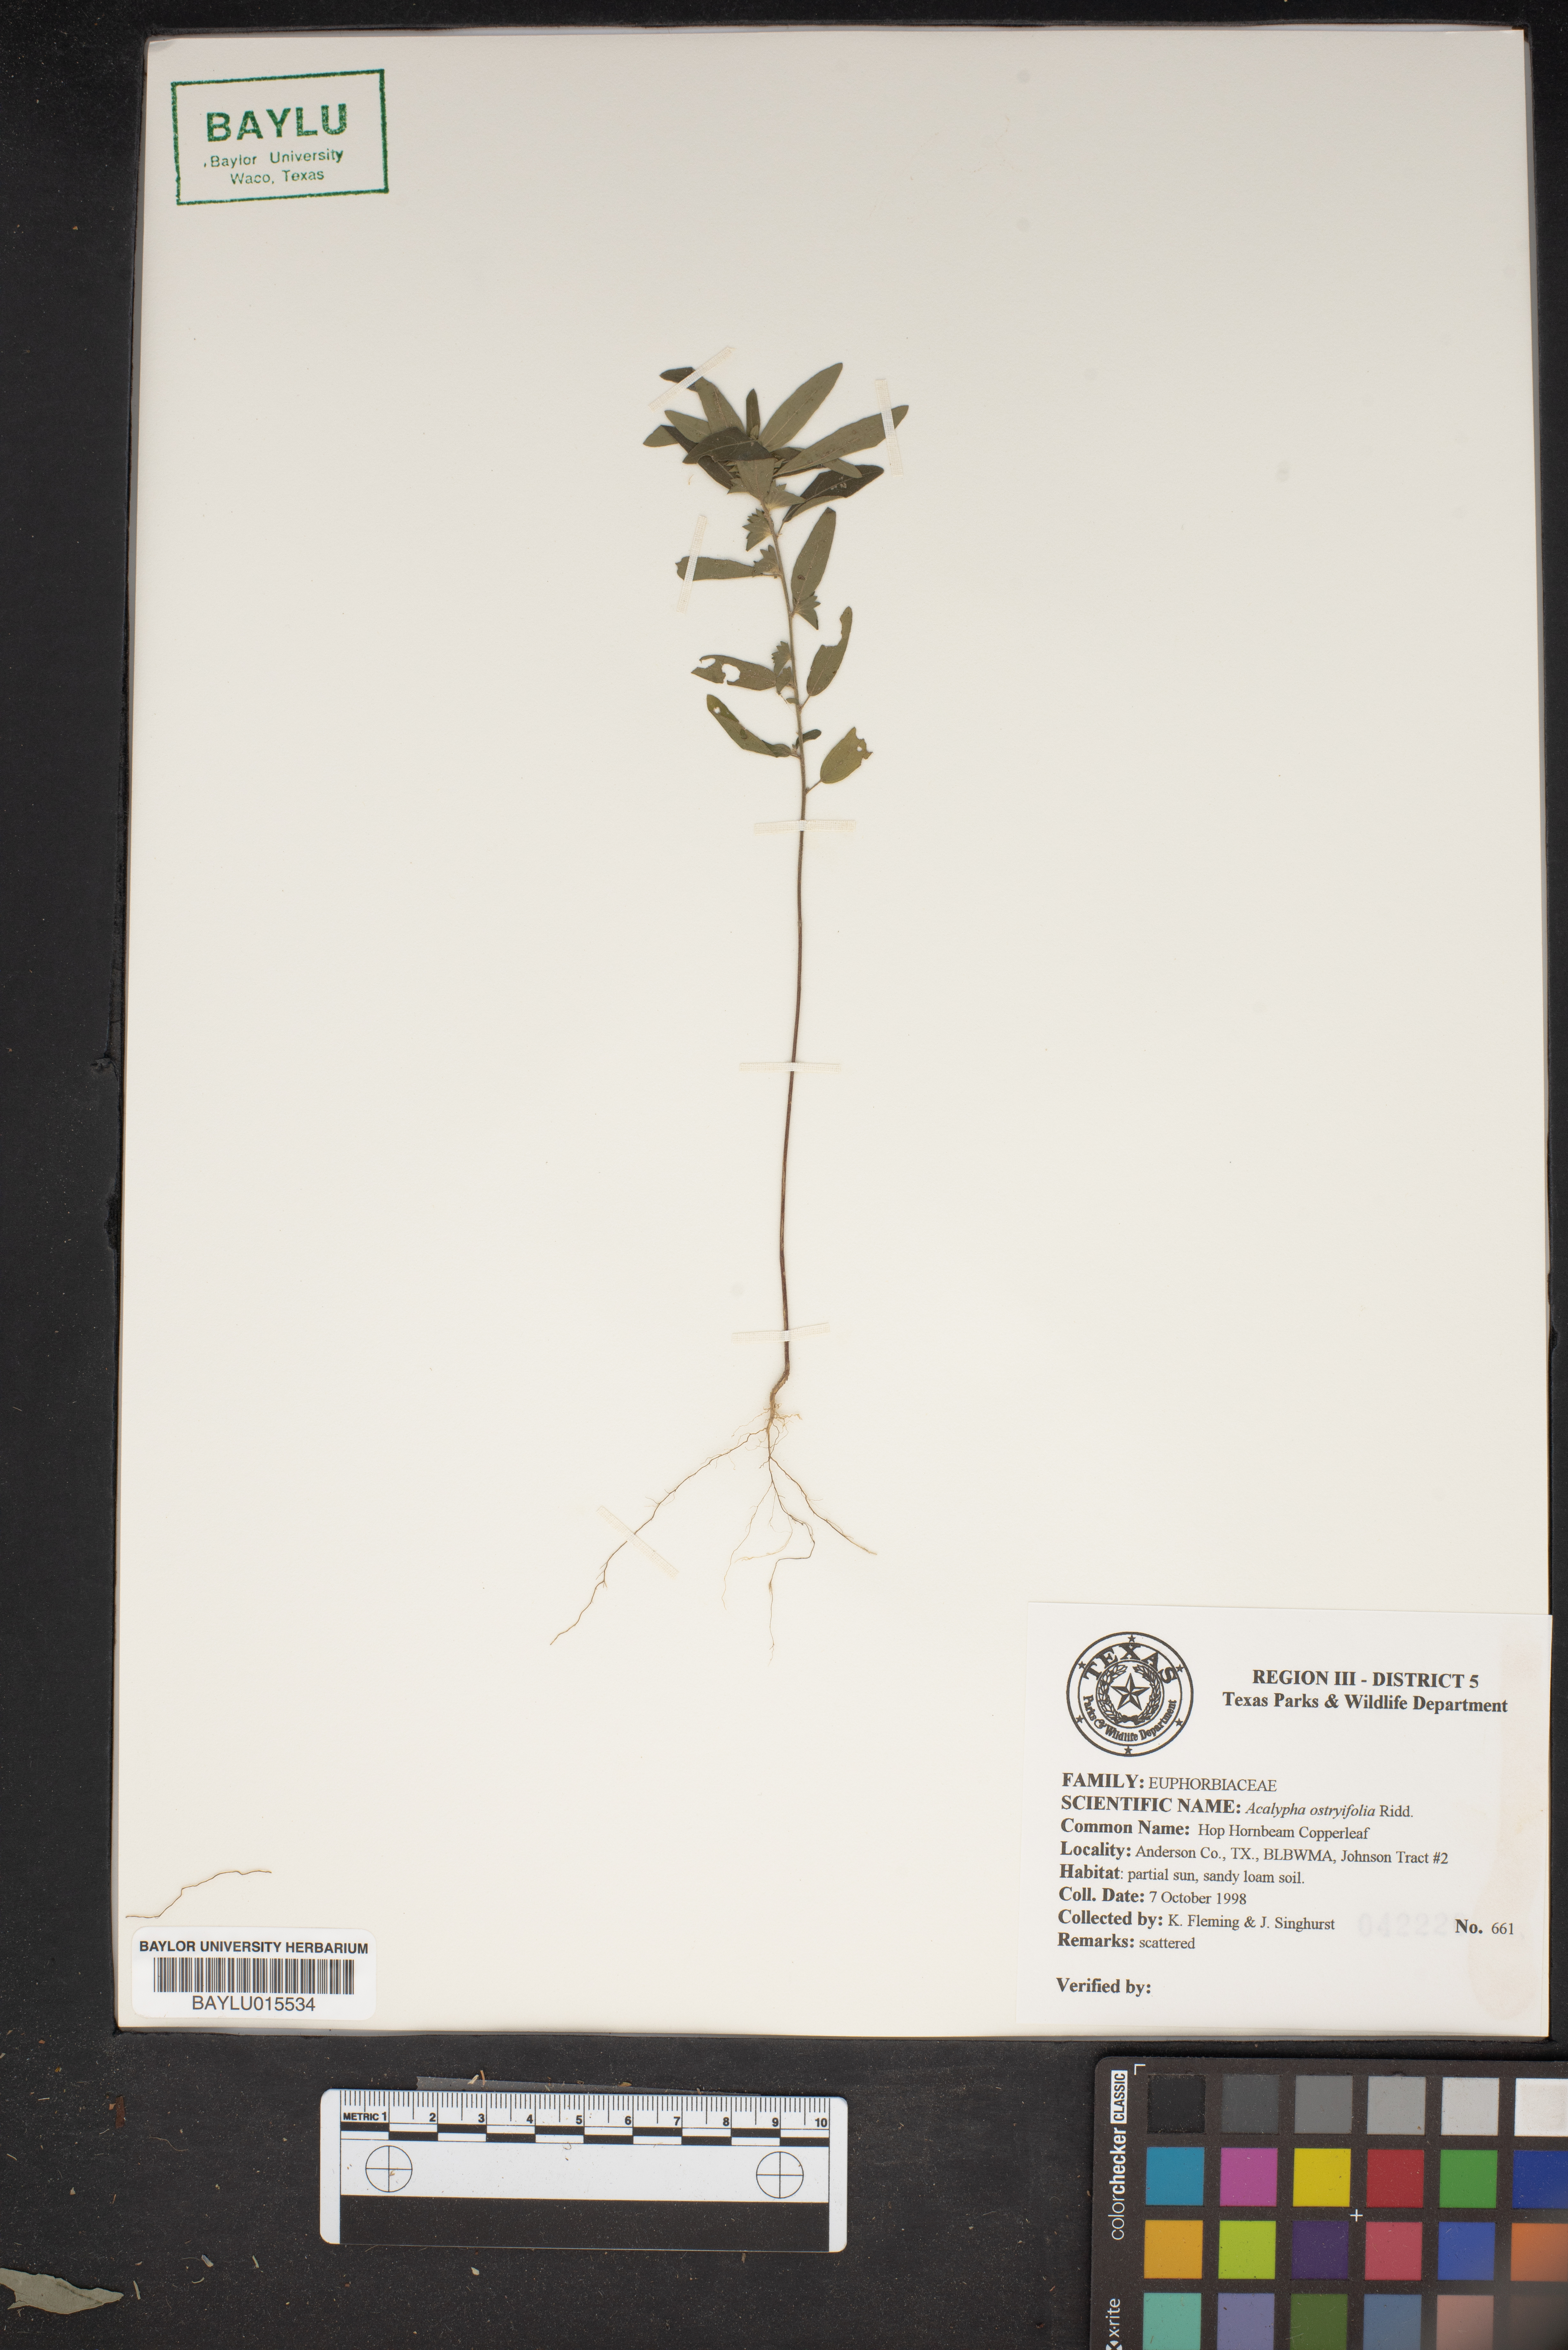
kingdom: Plantae
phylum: Tracheophyta
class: Magnoliopsida
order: Malpighiales
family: Euphorbiaceae
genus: Acalypha
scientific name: Acalypha persimilis
